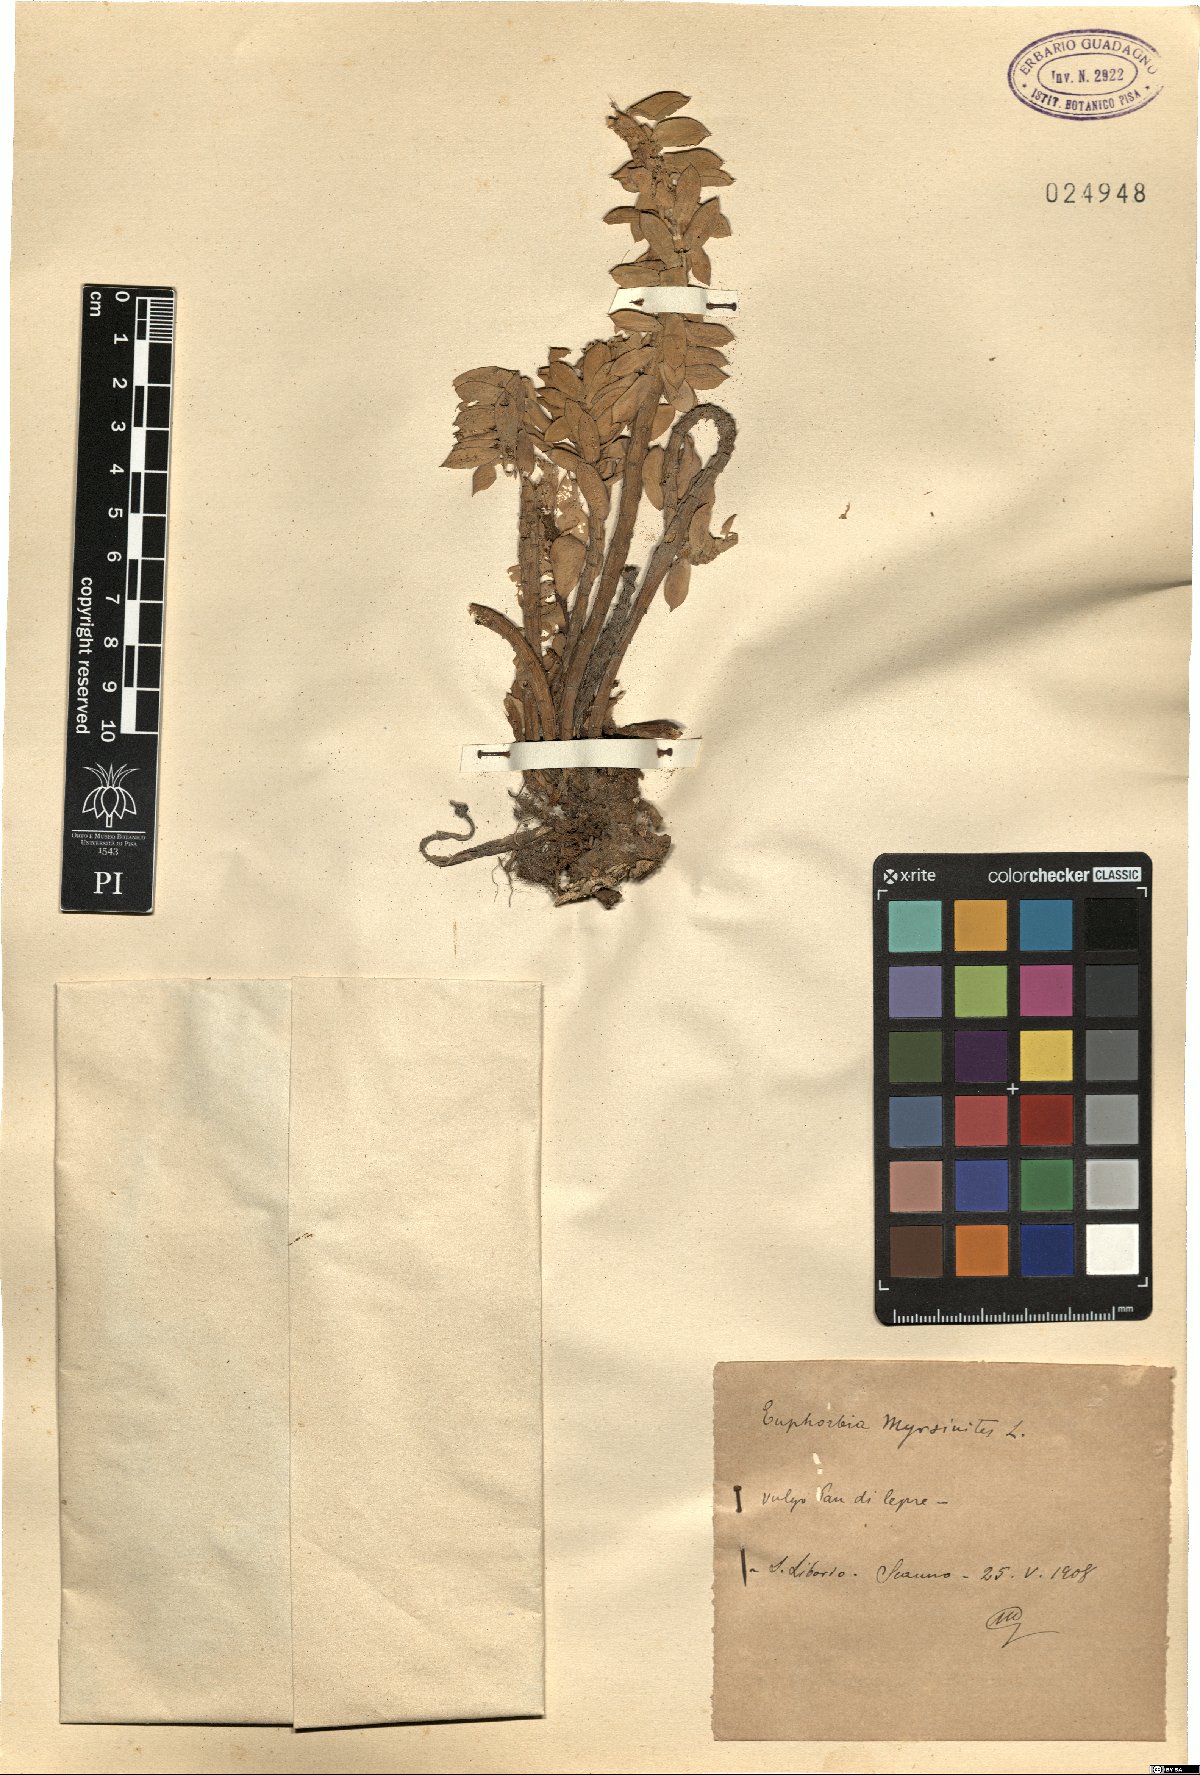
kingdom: Plantae
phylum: Tracheophyta
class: Magnoliopsida
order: Malpighiales
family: Euphorbiaceae
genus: Euphorbia
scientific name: Euphorbia myrsinites
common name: Myrtle spurge
